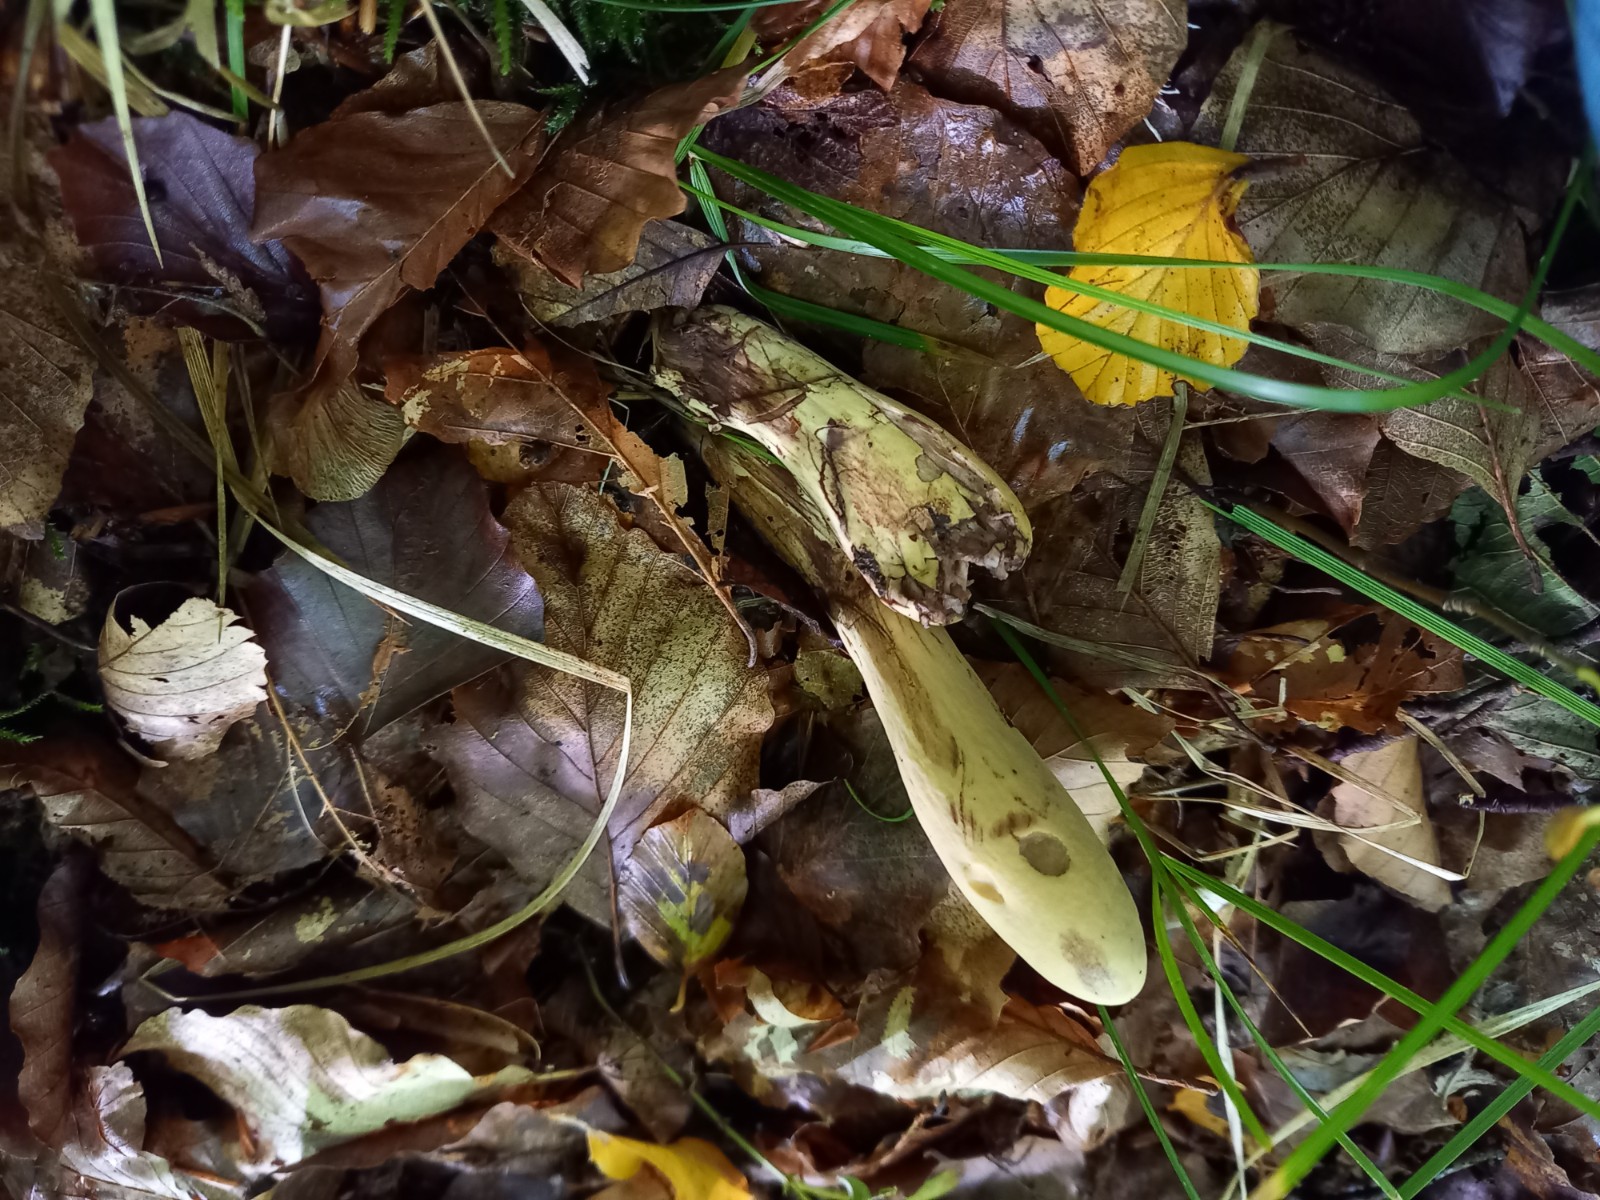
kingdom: Fungi
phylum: Basidiomycota
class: Agaricomycetes
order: Gomphales
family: Clavariadelphaceae
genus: Clavariadelphus
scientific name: Clavariadelphus pistillaris
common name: herkules-kæmpekølle
